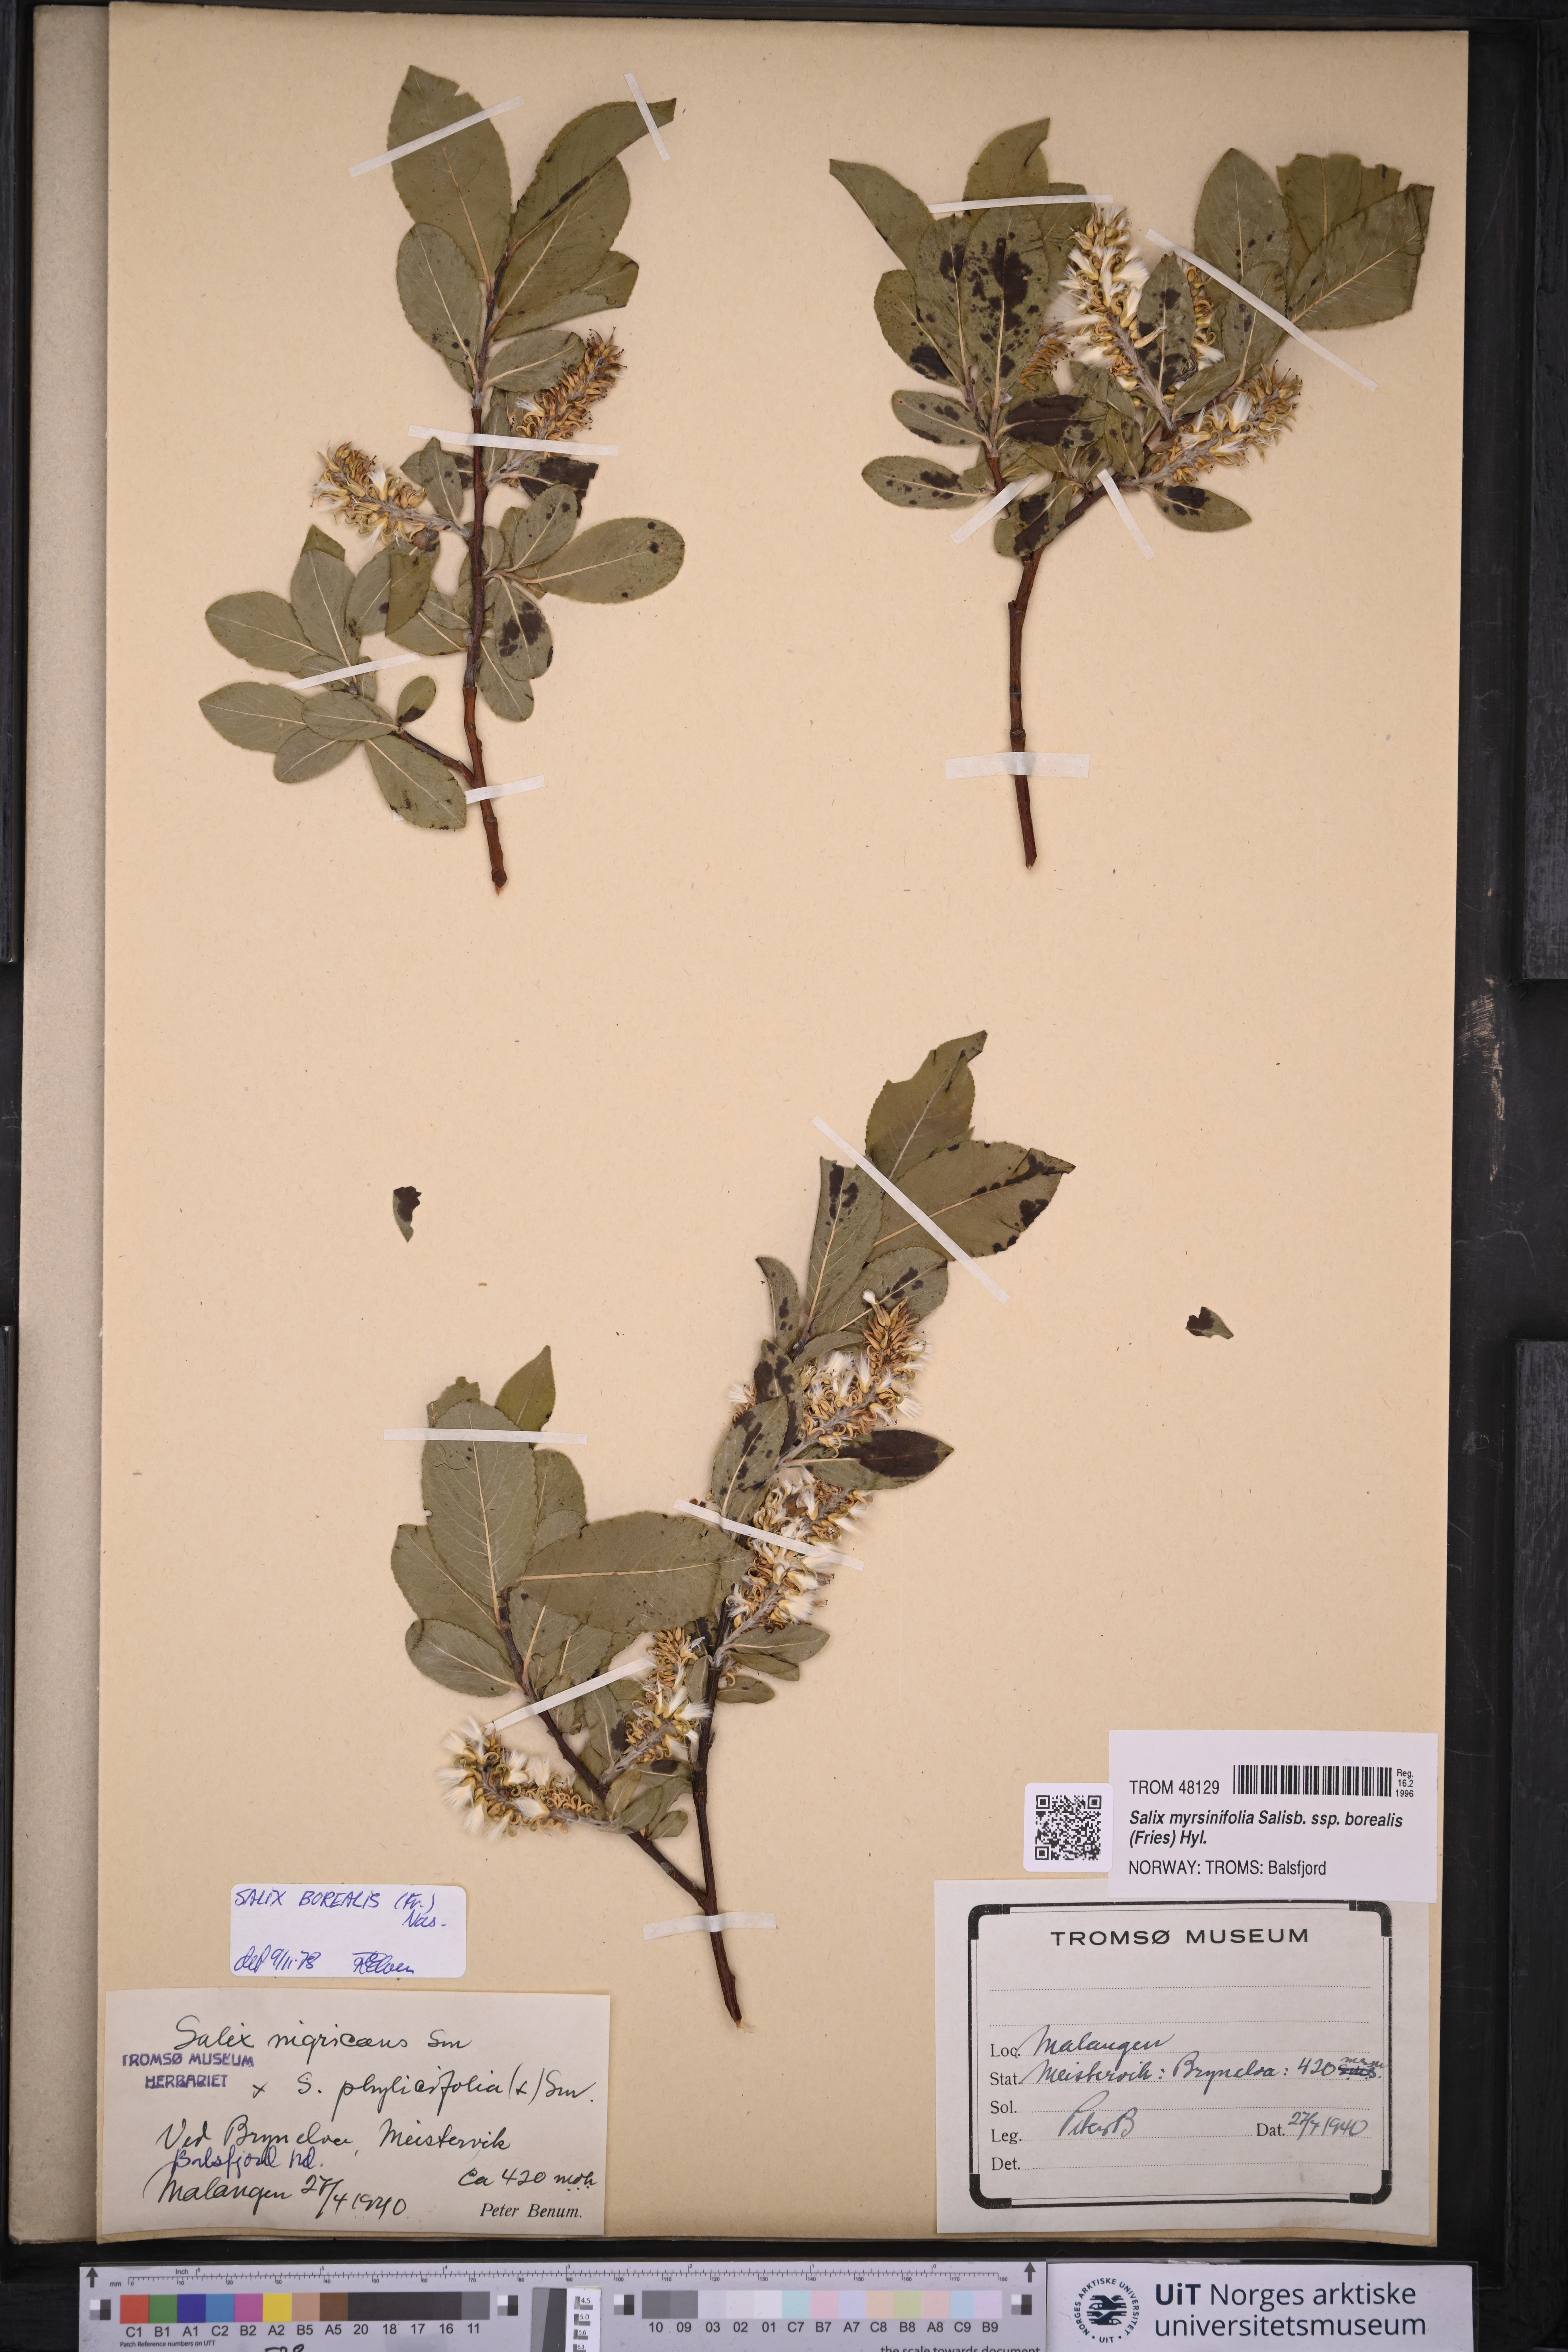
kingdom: Plantae
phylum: Tracheophyta
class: Magnoliopsida
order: Malpighiales
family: Salicaceae
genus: Salix
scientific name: Salix myrsinifolia
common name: Dark-leaved willow
